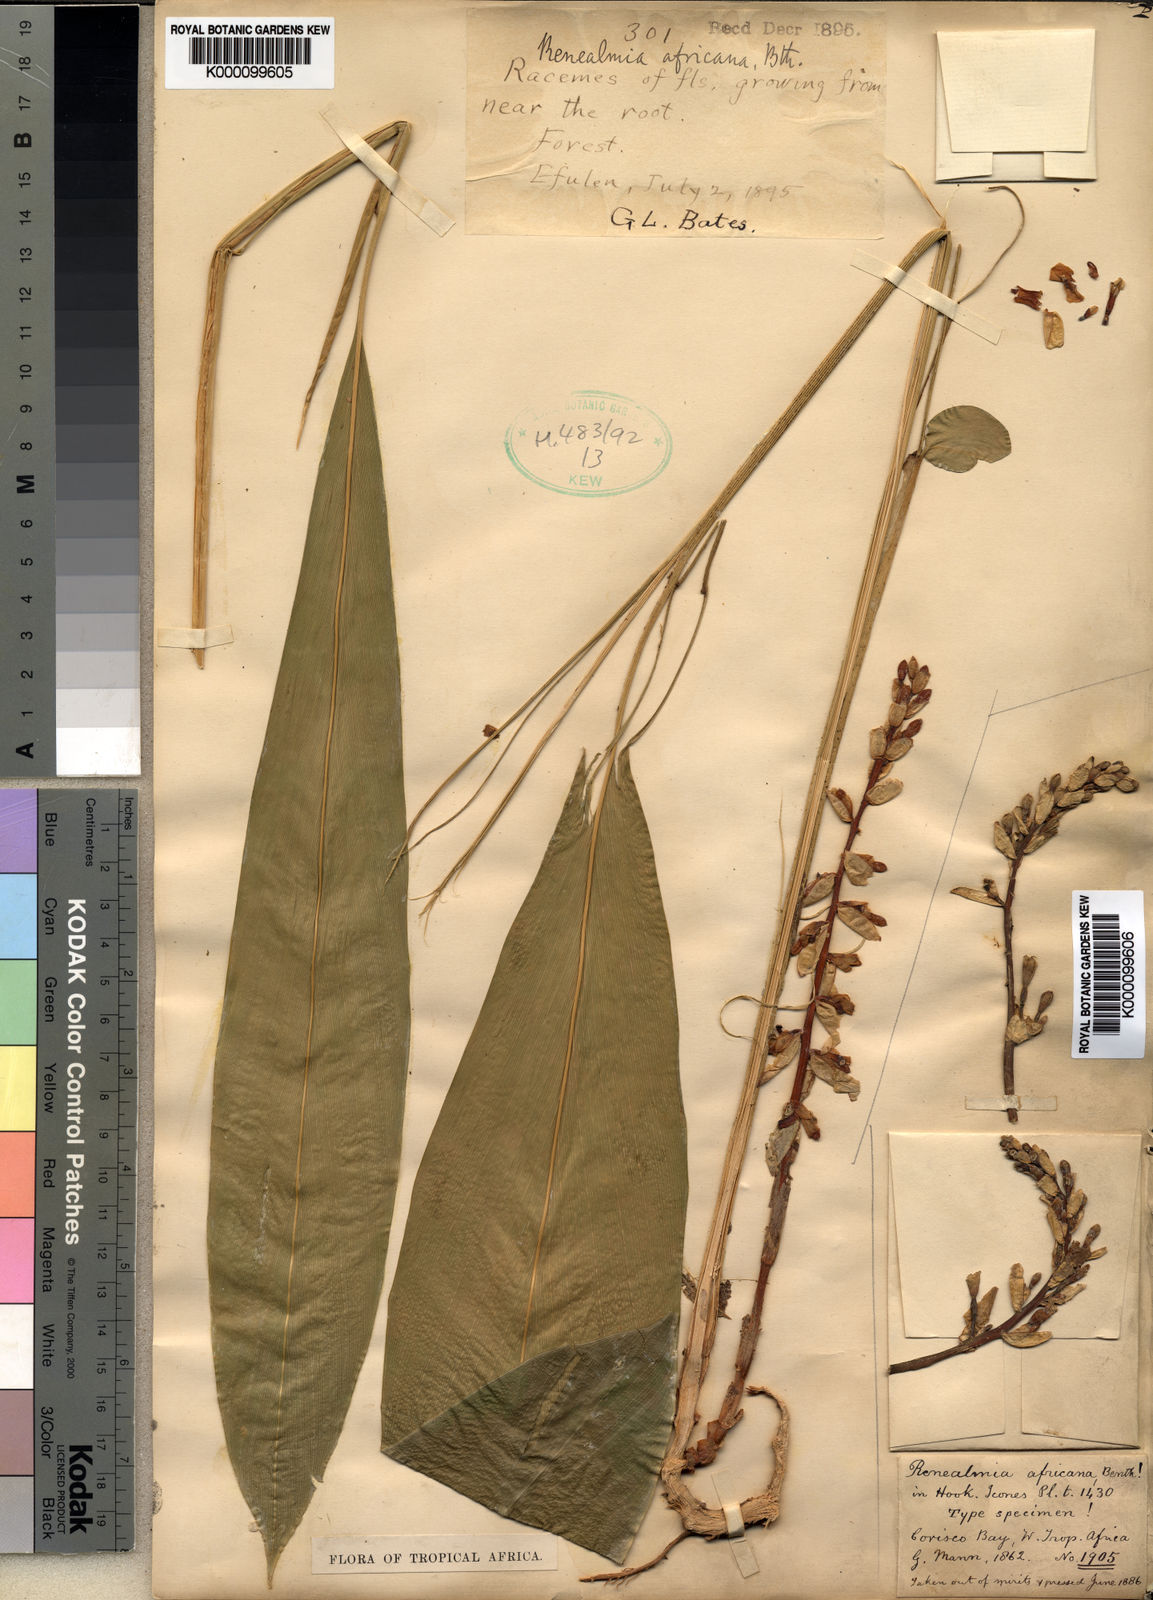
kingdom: Plantae
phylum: Tracheophyta
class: Liliopsida
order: Zingiberales
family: Zingiberaceae
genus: Renealmia
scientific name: Renealmia africana
